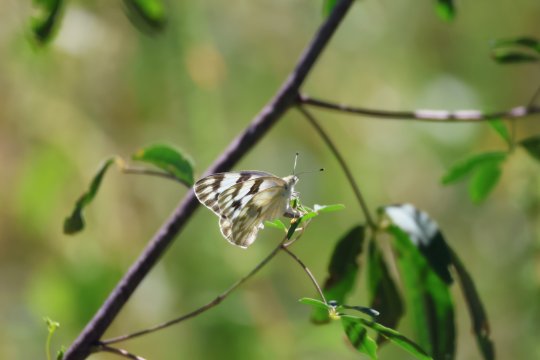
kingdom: Animalia
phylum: Arthropoda
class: Insecta
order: Lepidoptera
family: Pieridae
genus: Pontia
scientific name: Pontia protodice
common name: Checkered White
